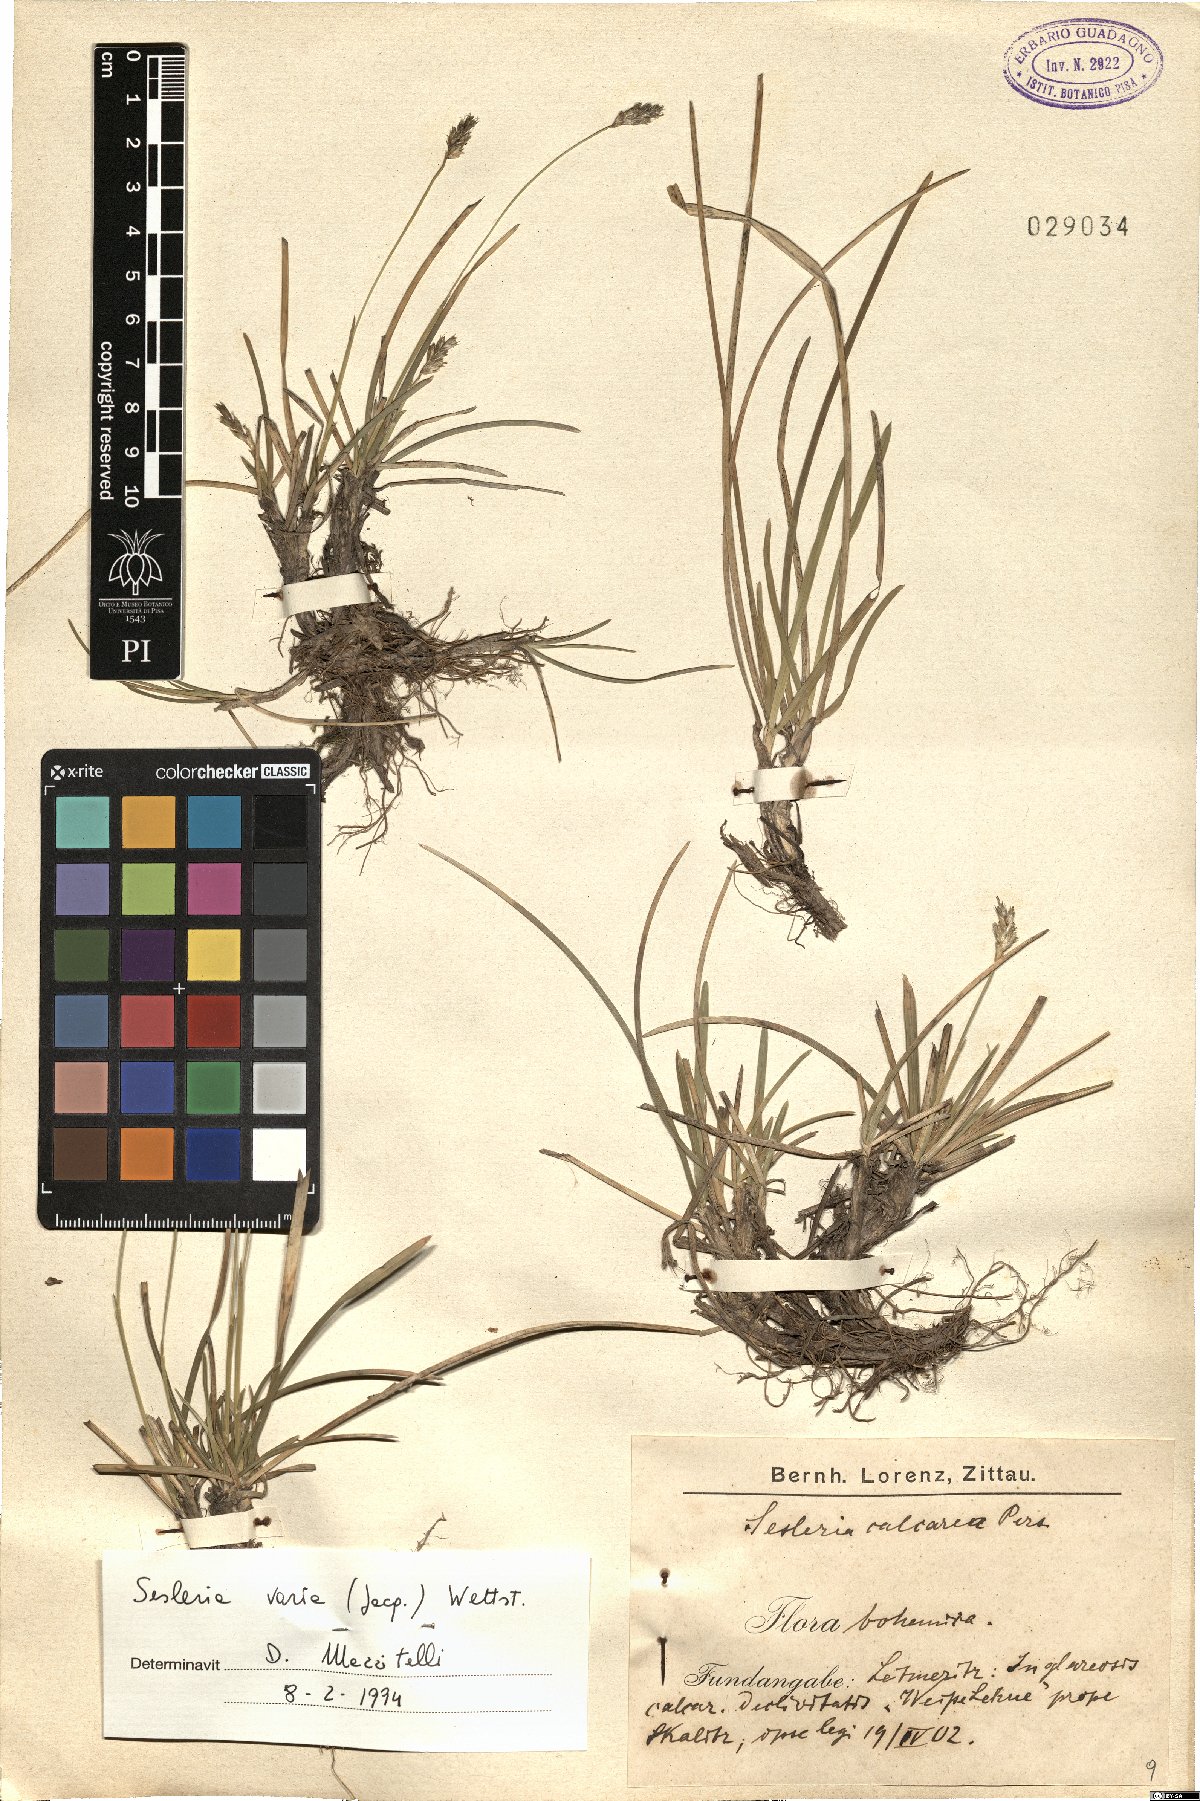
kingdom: Plantae
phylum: Tracheophyta
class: Liliopsida
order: Poales
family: Poaceae
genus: Sesleria
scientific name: Sesleria caerulea
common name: Blue moor-grass
